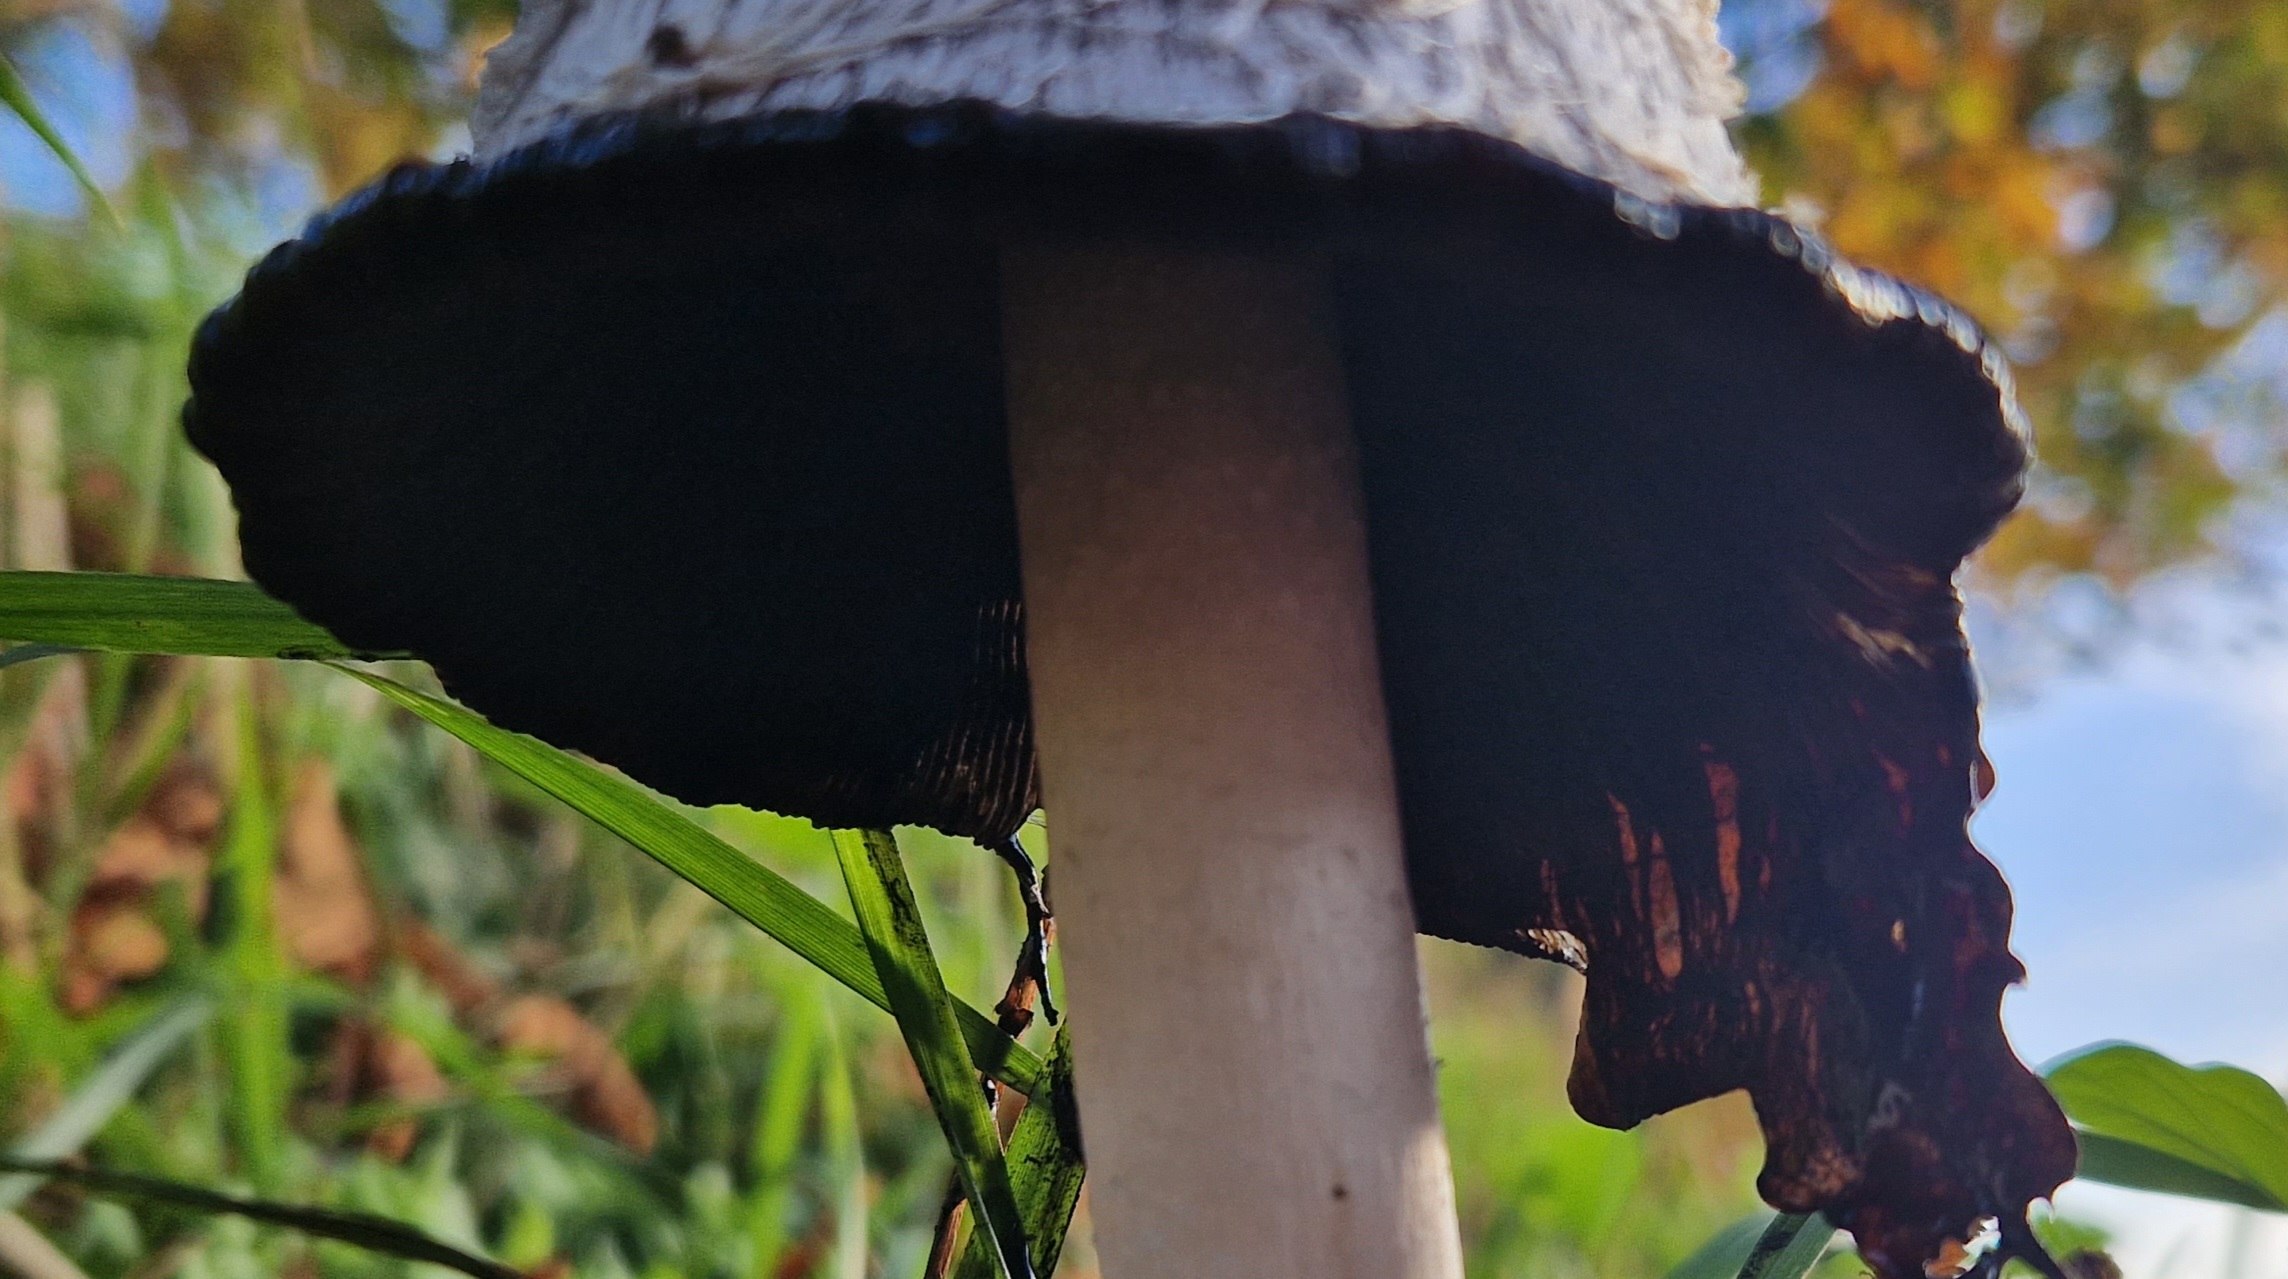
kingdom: Fungi
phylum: Basidiomycota
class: Agaricomycetes
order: Agaricales
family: Agaricaceae
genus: Coprinus
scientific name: Coprinus comatus
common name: Stor parykhat
